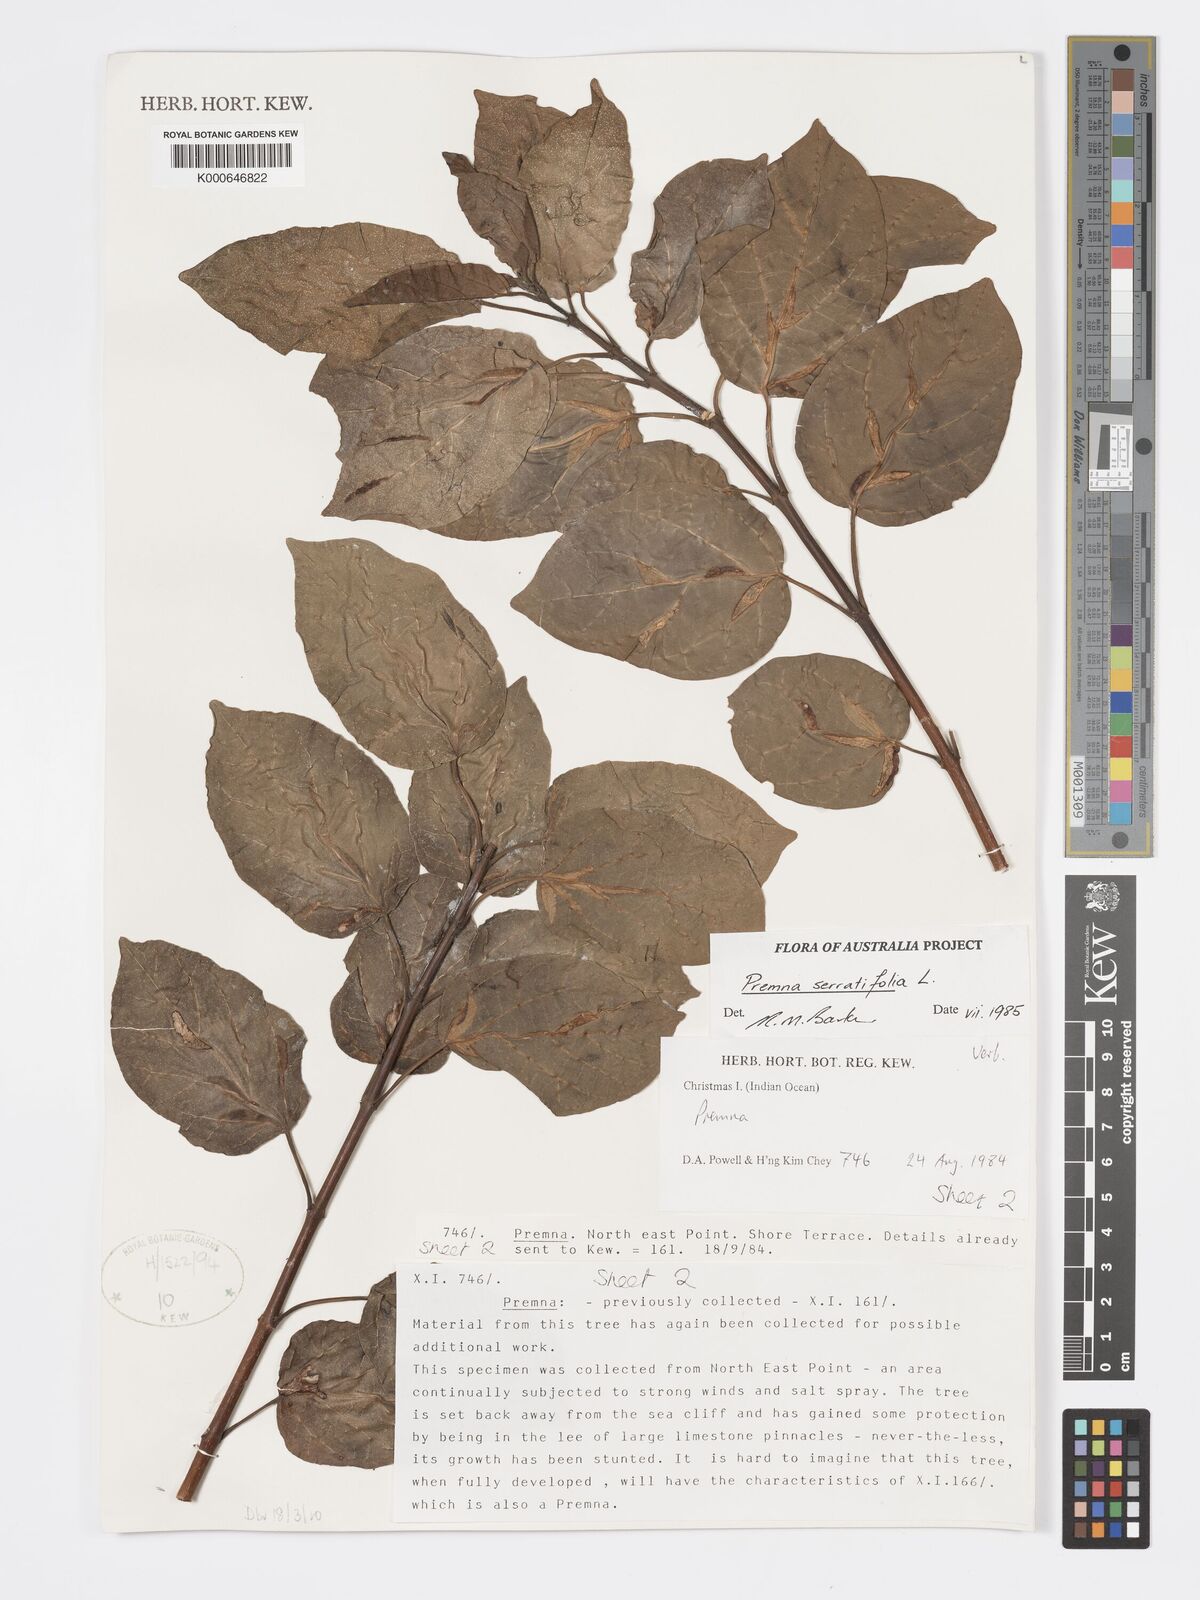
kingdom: Plantae
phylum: Tracheophyta
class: Magnoliopsida
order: Lamiales
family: Lamiaceae
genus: Premna
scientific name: Premna serratifolia
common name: Bastard guelder
